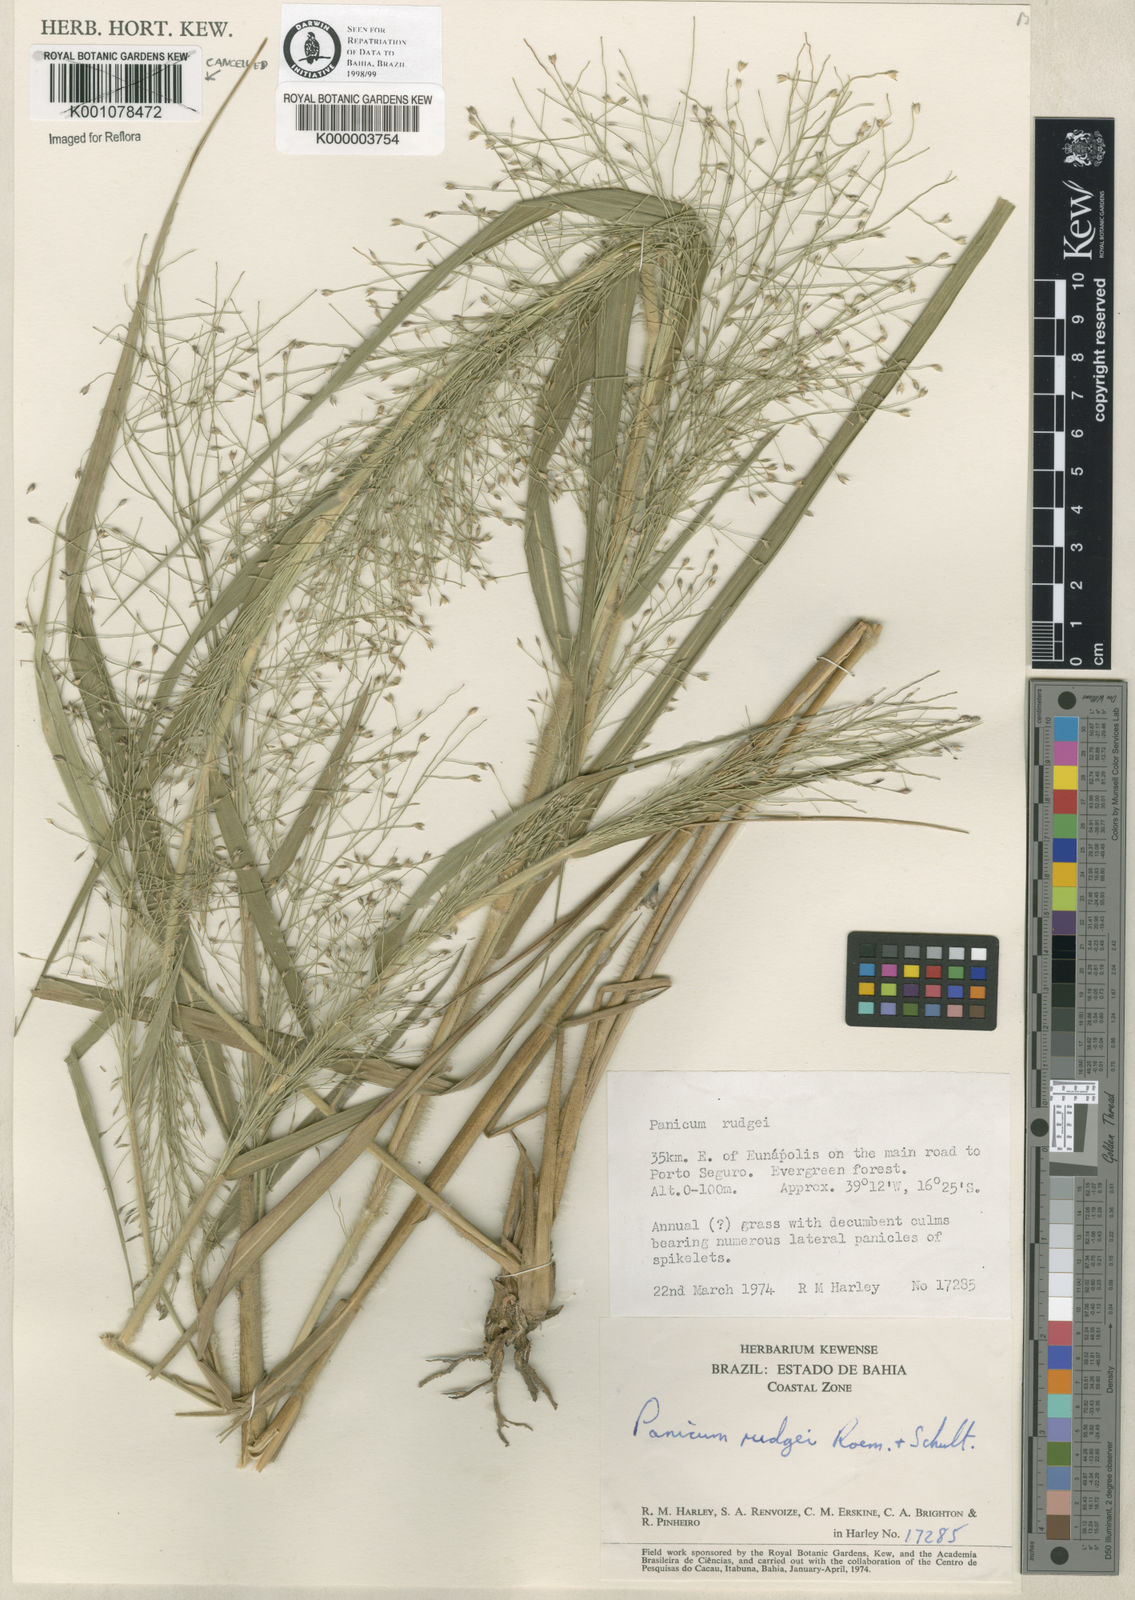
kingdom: Plantae
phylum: Tracheophyta
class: Liliopsida
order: Poales
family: Poaceae
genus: Panicum
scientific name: Panicum rudgei
